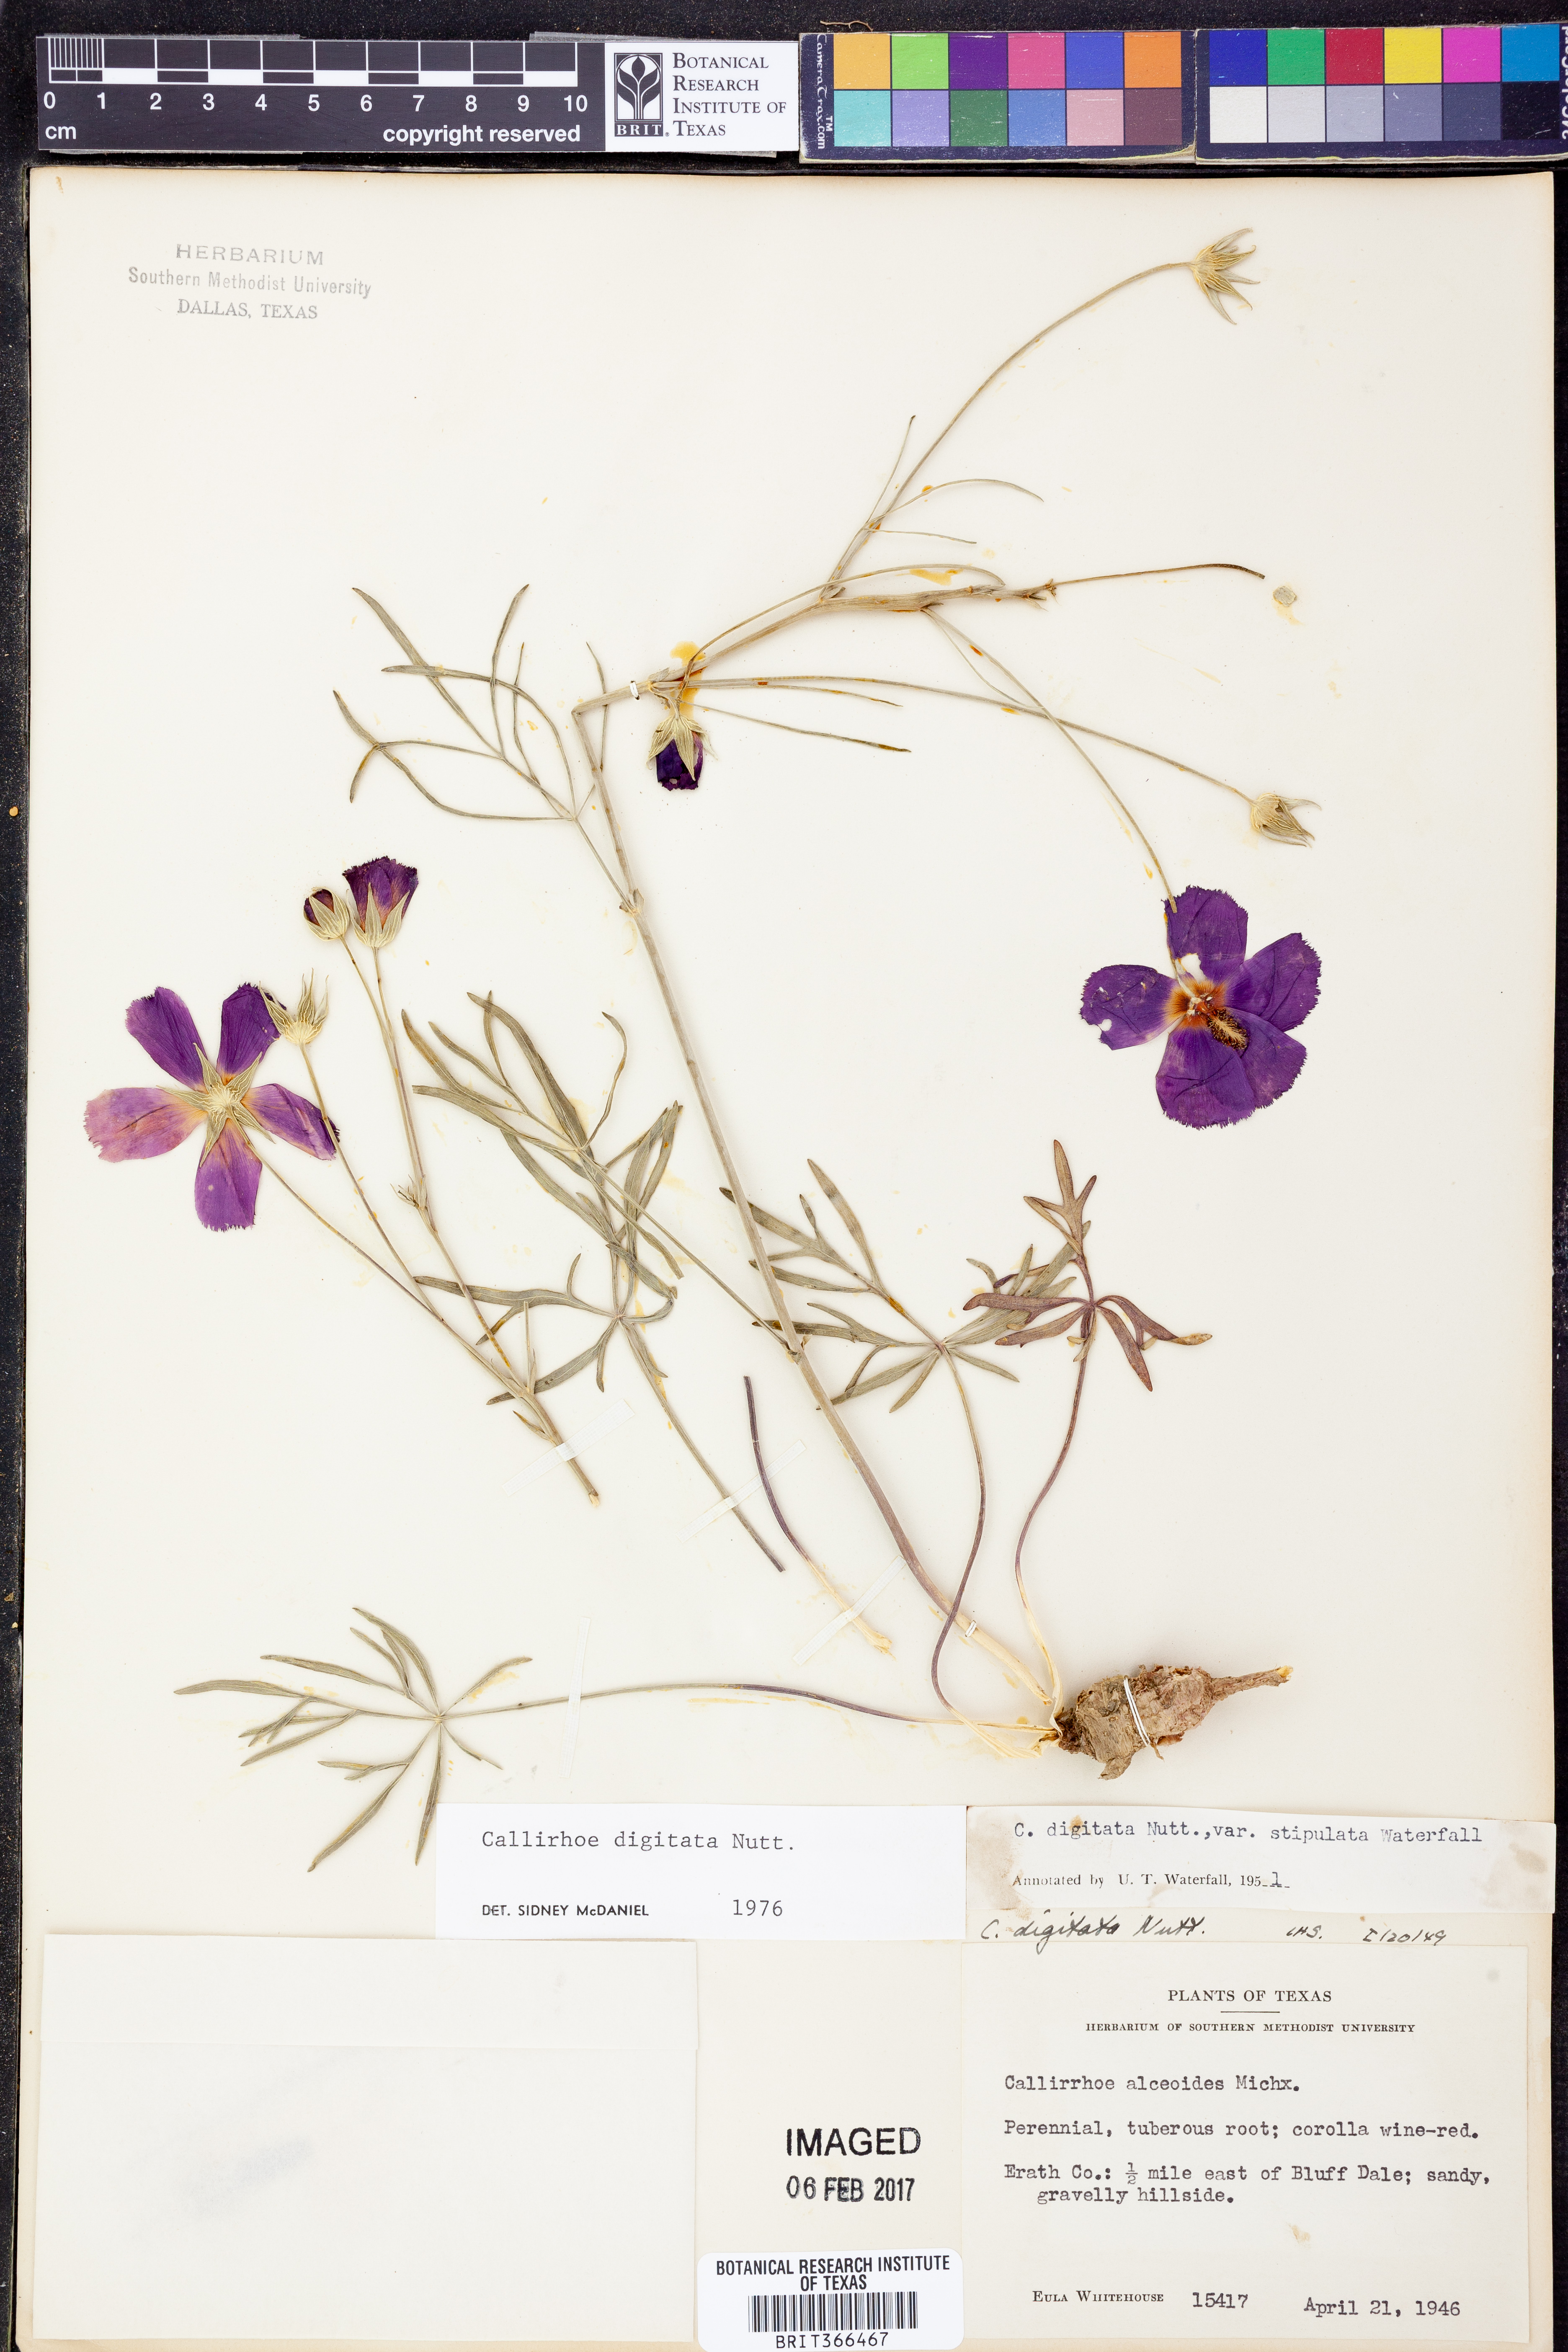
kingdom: Plantae
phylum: Tracheophyta
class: Magnoliopsida
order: Malvales
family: Malvaceae
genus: Callirhoe
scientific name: Callirhoe digitata
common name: Finger poppy-mallow
